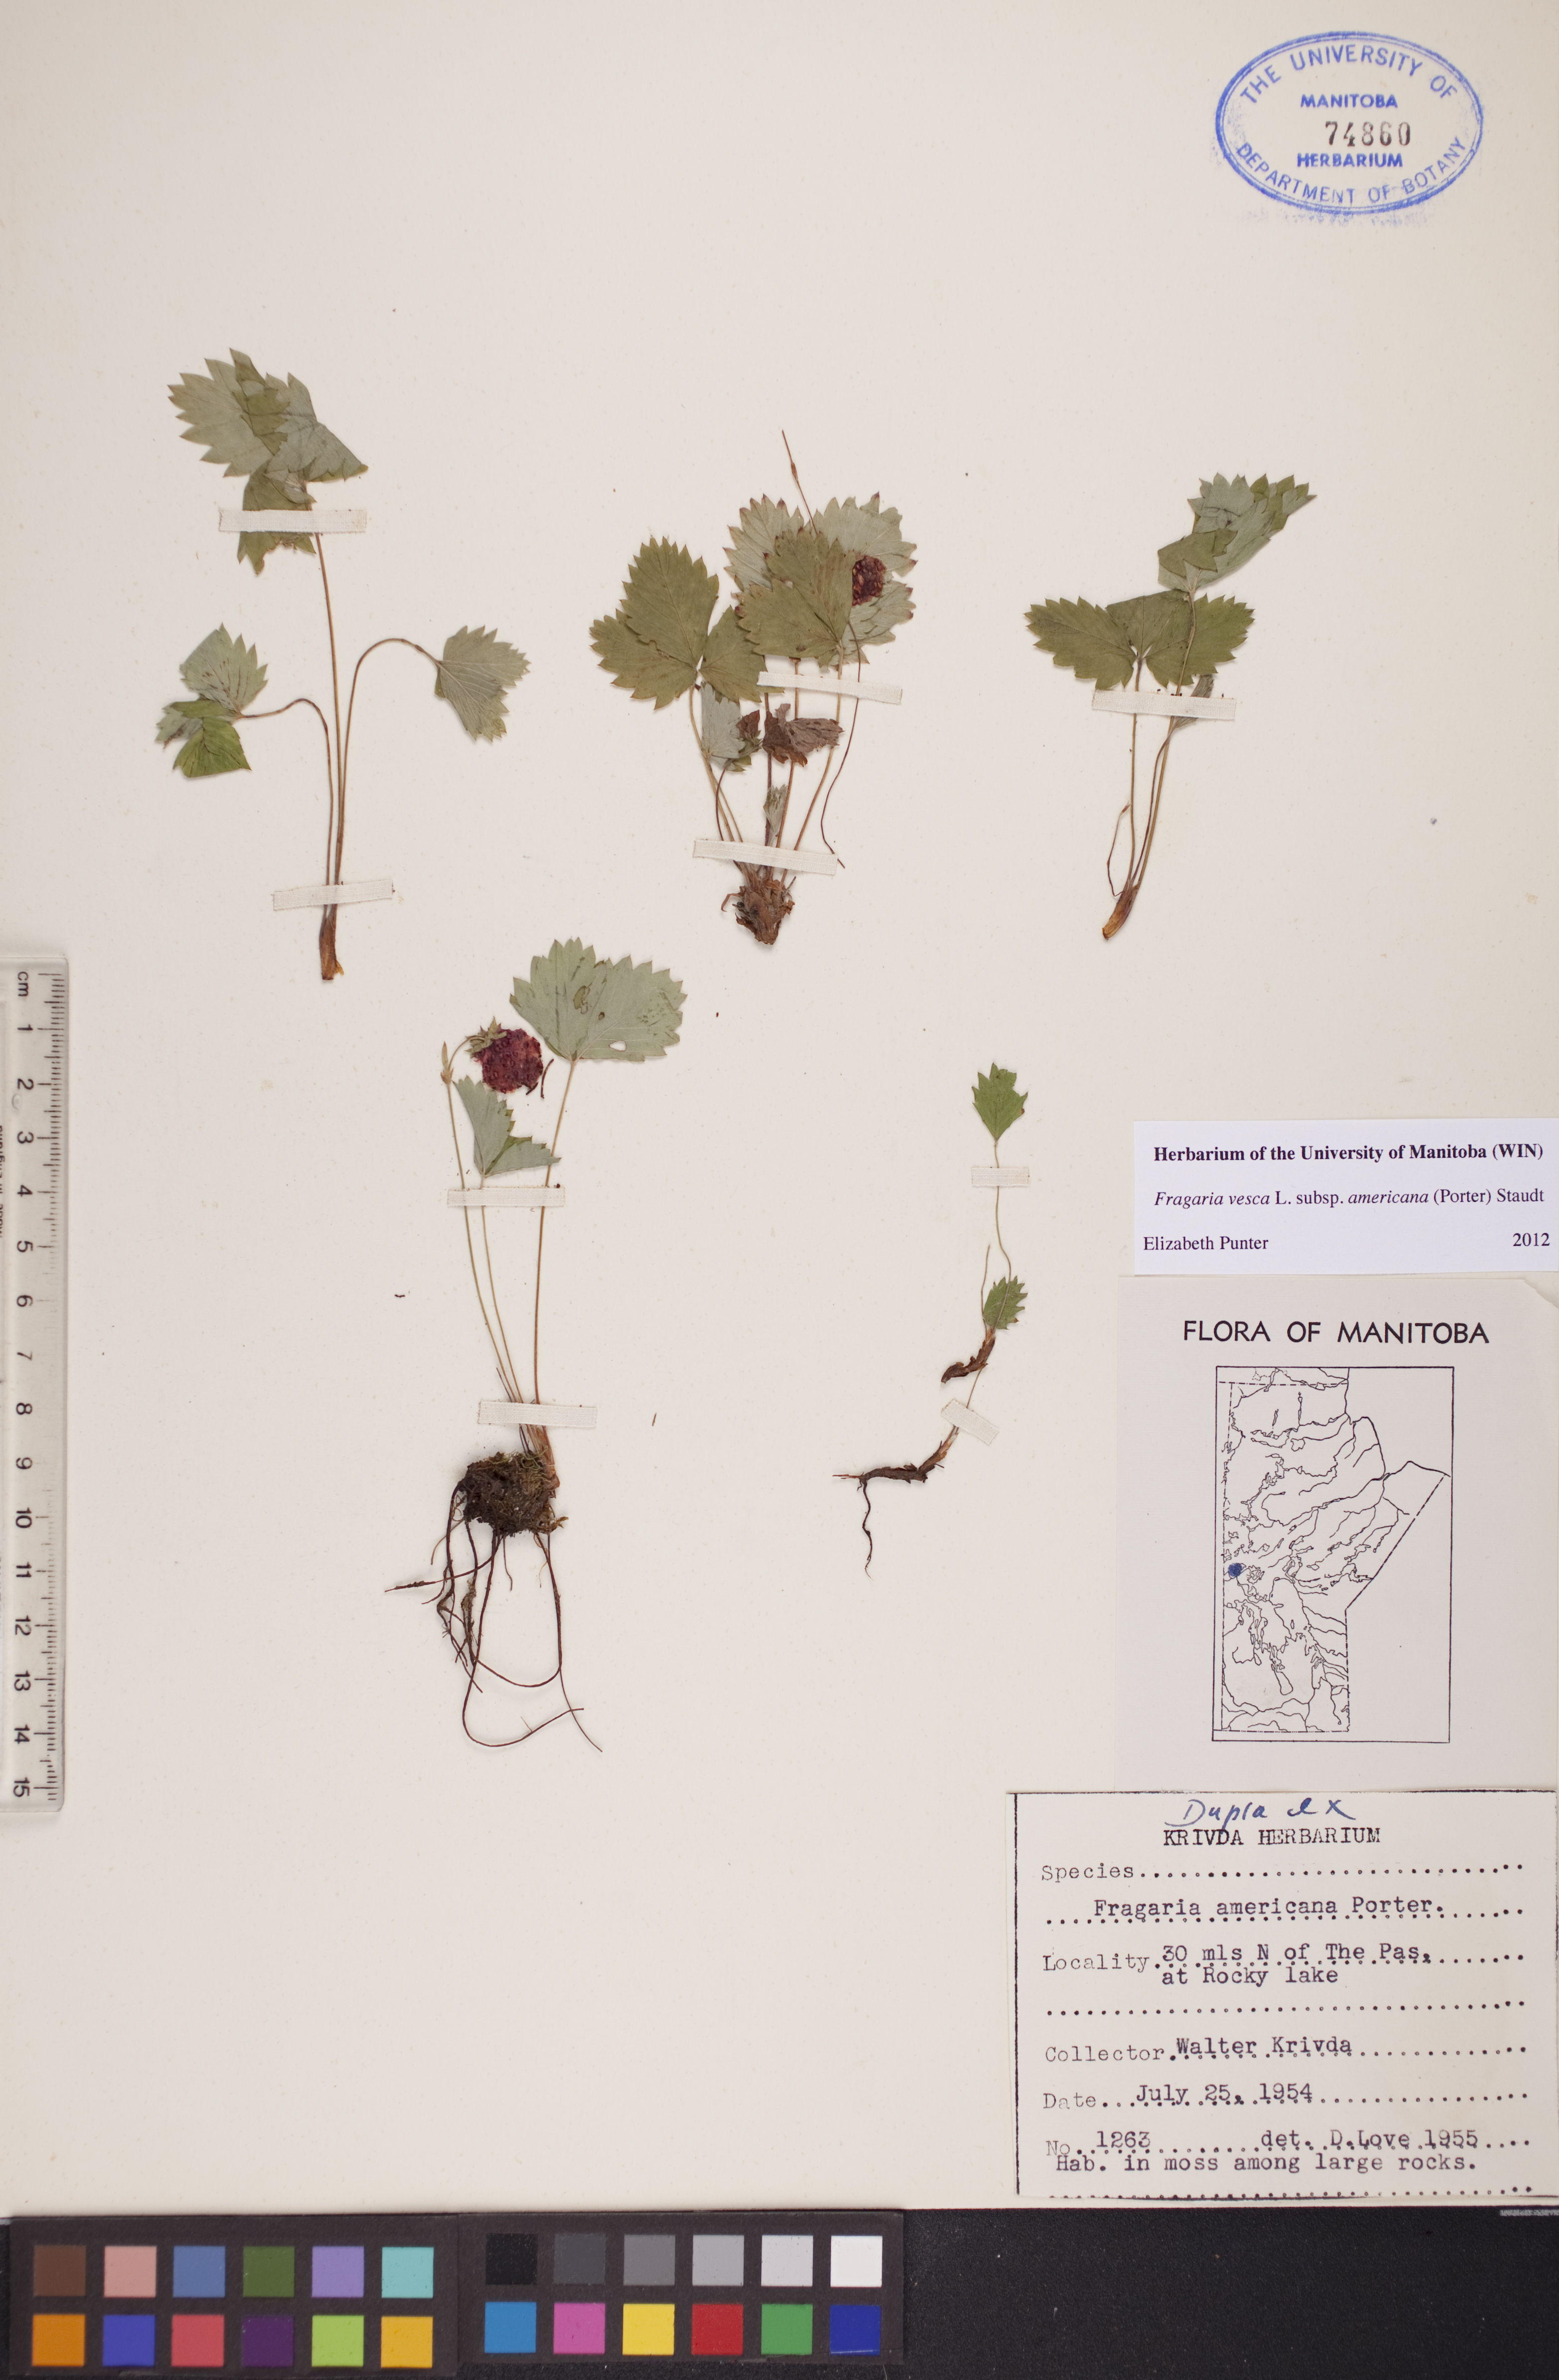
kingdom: Plantae
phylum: Tracheophyta
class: Magnoliopsida
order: Rosales
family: Rosaceae
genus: Fragaria
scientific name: Fragaria vesca
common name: Wild strawberry
